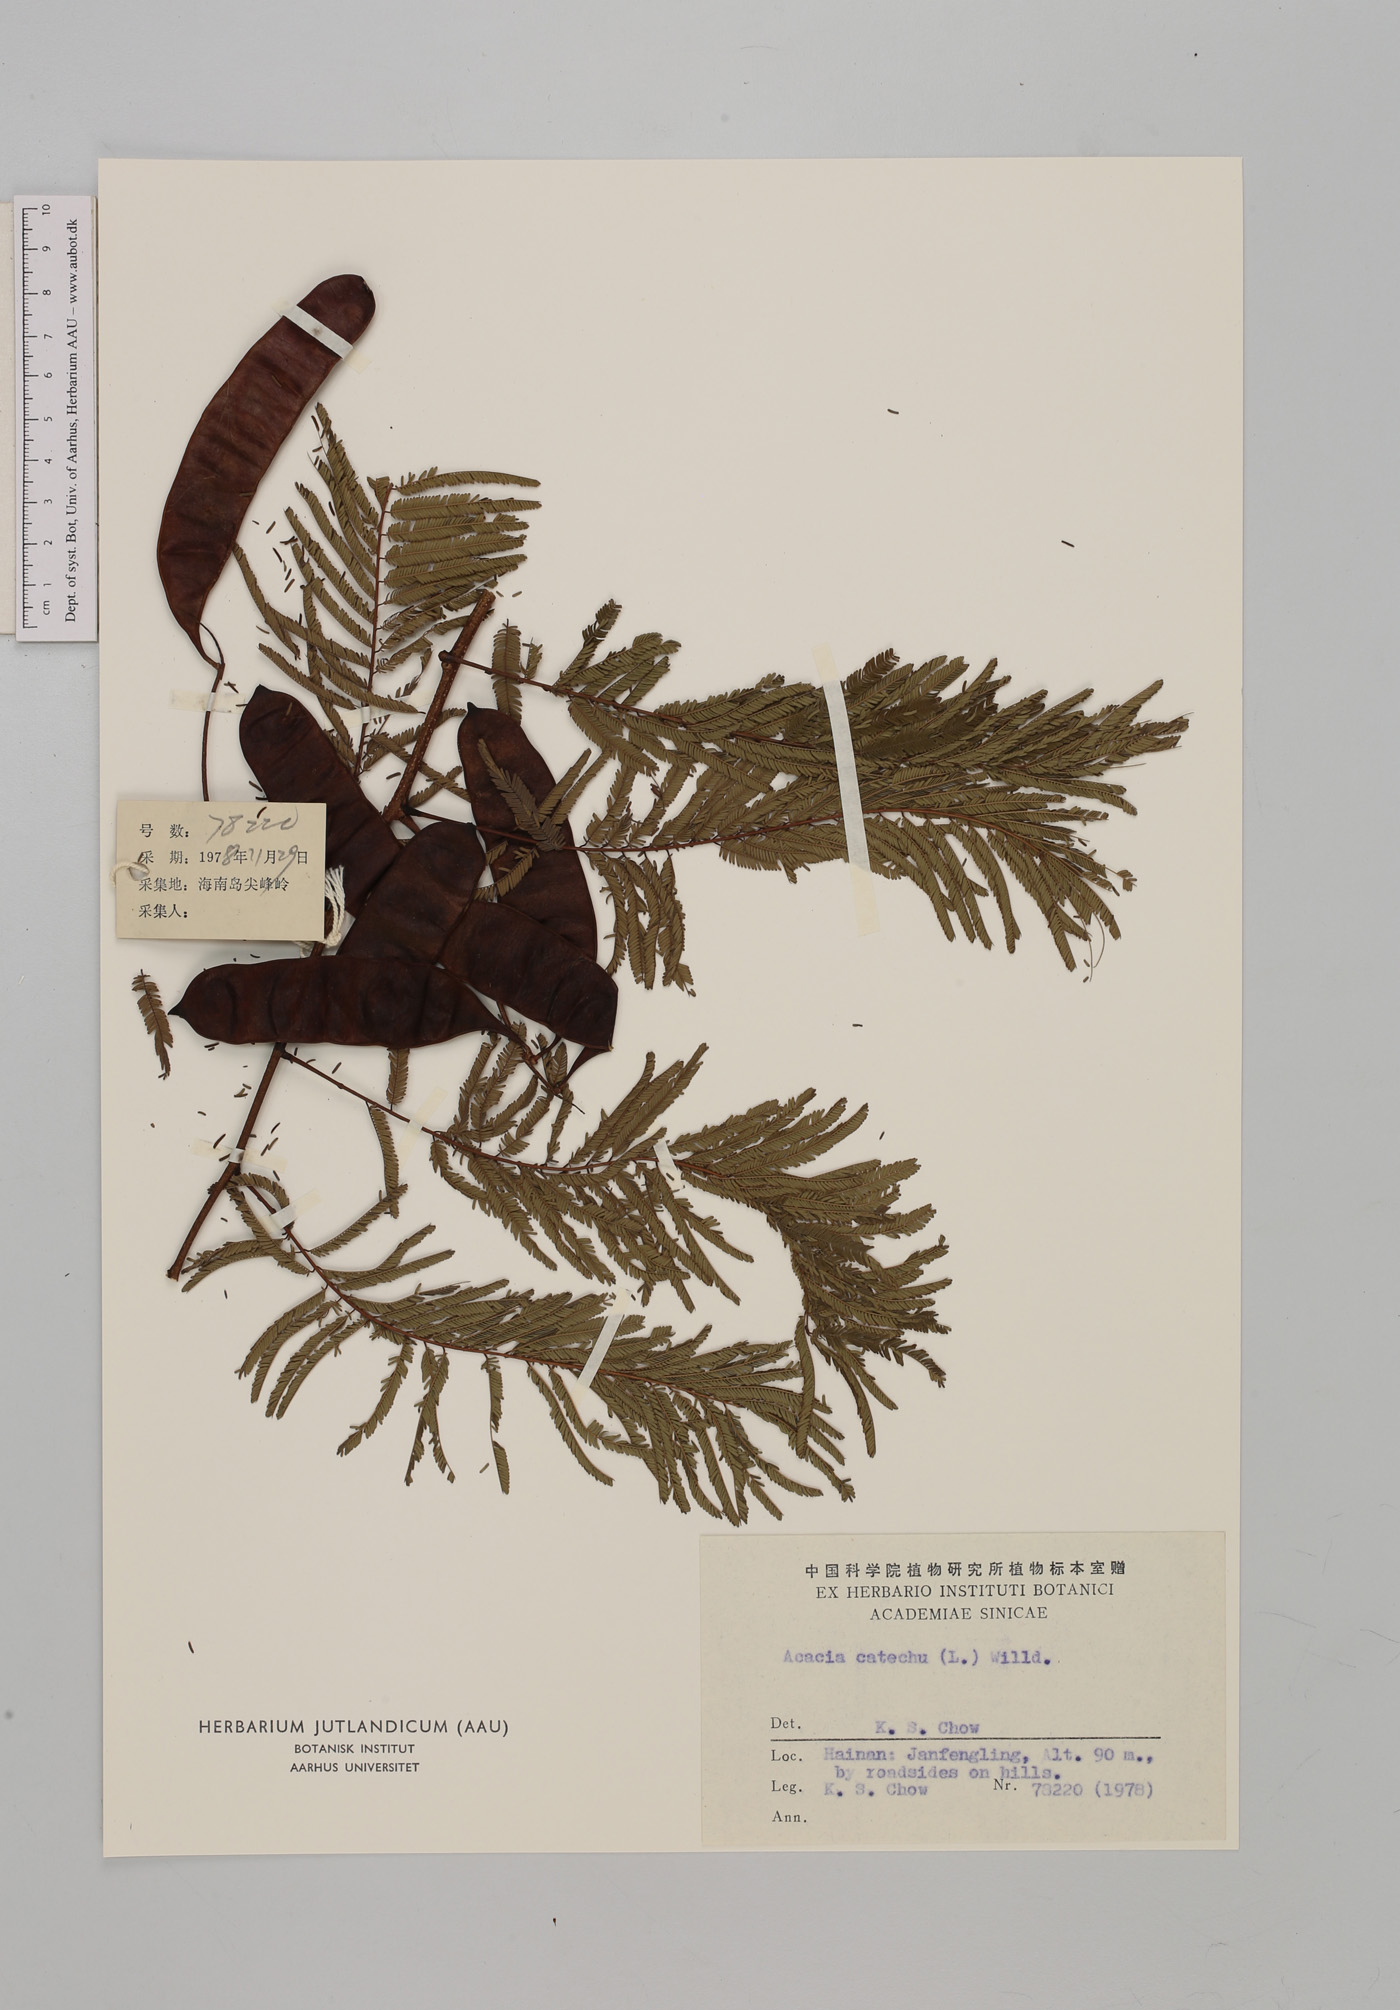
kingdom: Plantae
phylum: Tracheophyta
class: Magnoliopsida
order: Fabales
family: Fabaceae
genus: Senegalia
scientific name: Senegalia catechu
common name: Black cutch
